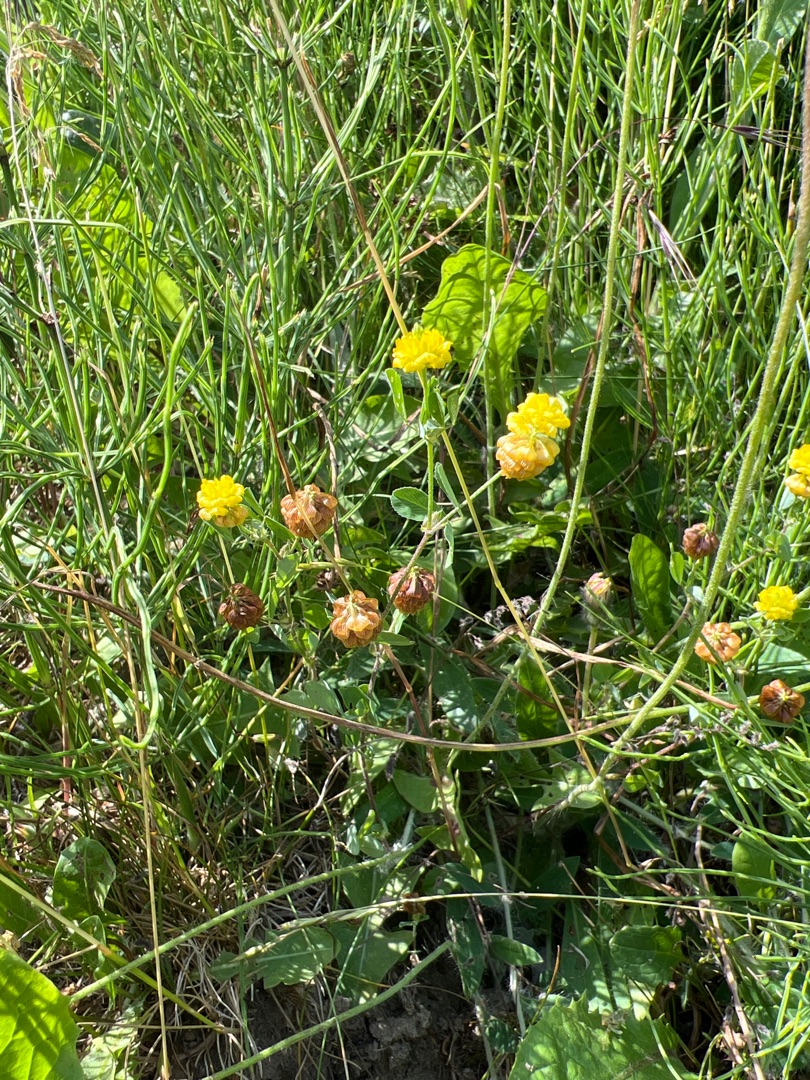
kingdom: Plantae
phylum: Tracheophyta
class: Magnoliopsida
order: Fabales
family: Fabaceae
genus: Trifolium
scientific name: Trifolium campestre
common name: Gul kløver
